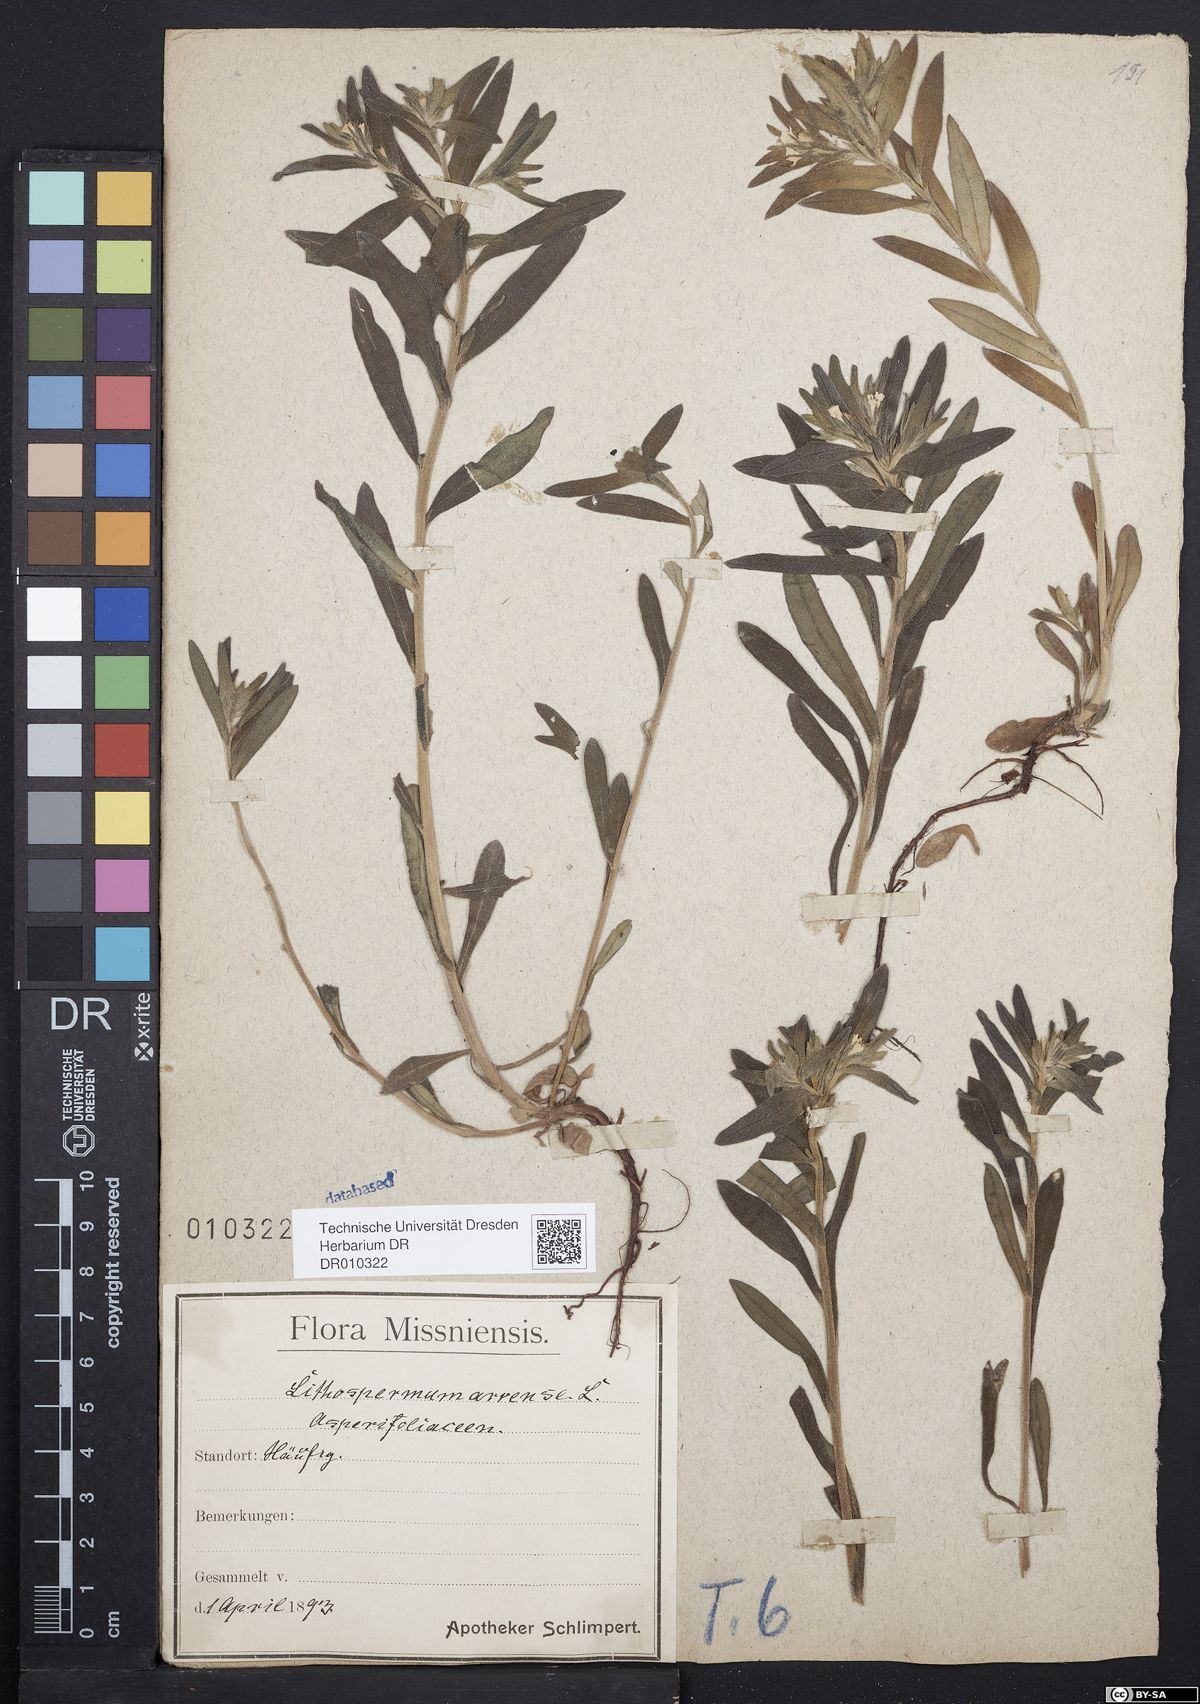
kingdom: Plantae
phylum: Tracheophyta
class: Magnoliopsida
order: Boraginales
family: Boraginaceae
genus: Buglossoides
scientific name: Buglossoides arvensis
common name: Corn gromwell
